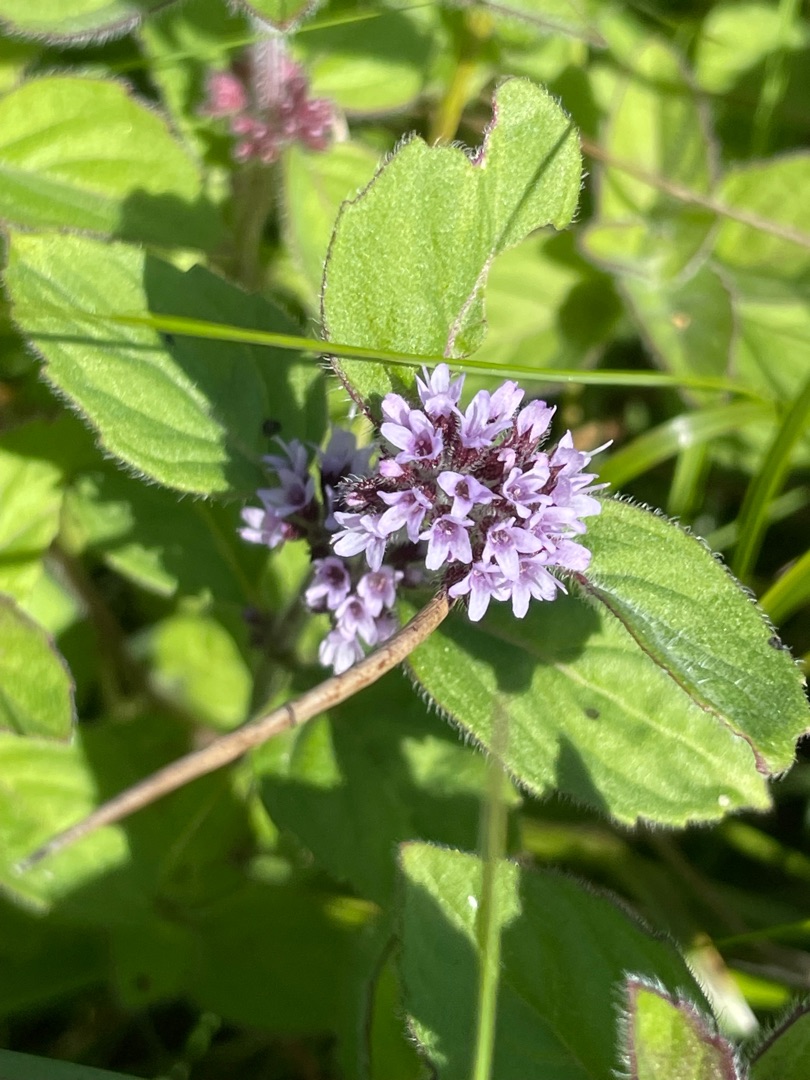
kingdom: Plantae
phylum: Tracheophyta
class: Magnoliopsida
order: Lamiales
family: Lamiaceae
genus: Mentha
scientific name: Mentha aquatica
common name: Vand-mynte
